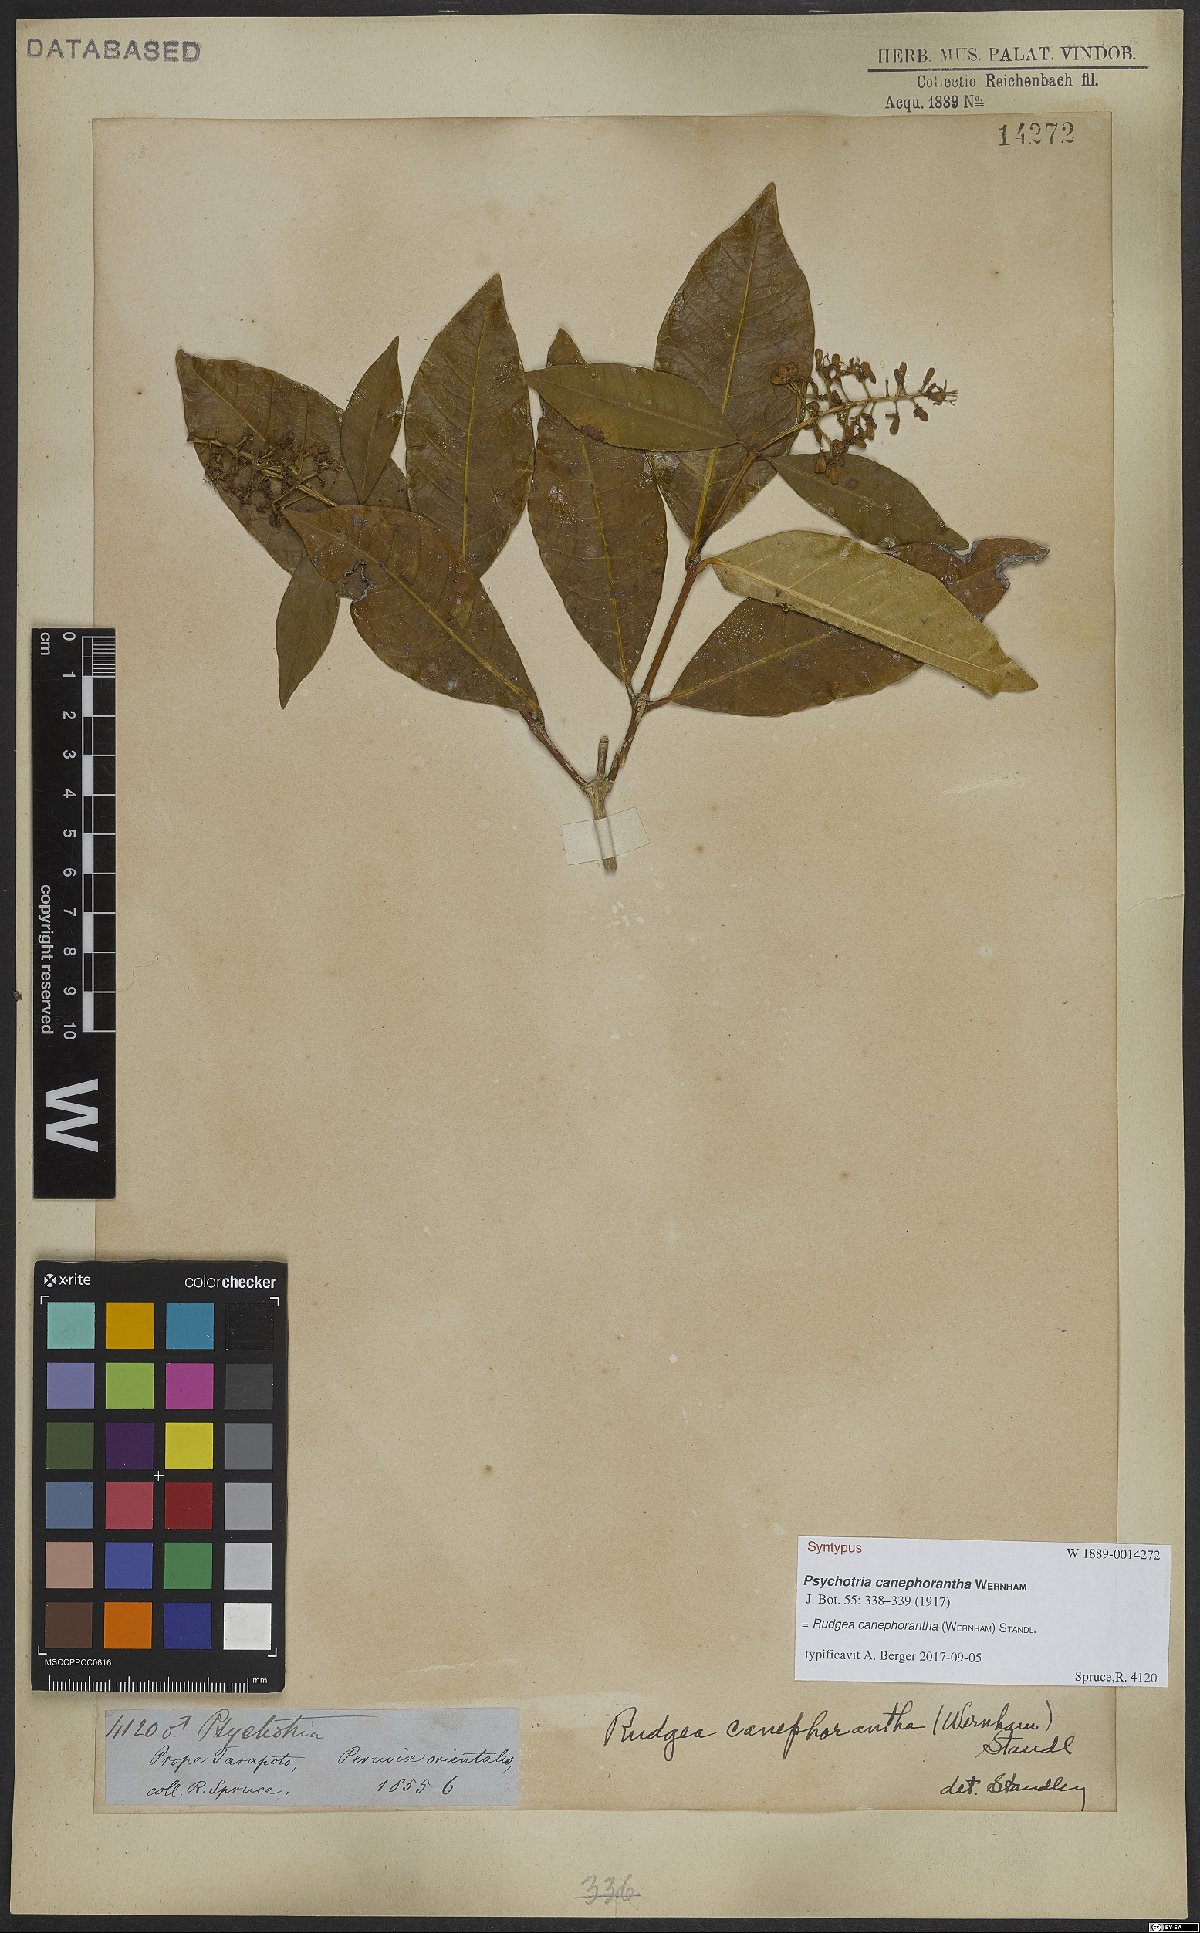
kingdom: Plantae
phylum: Tracheophyta
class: Magnoliopsida
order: Gentianales
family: Rubiaceae
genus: Rudgea
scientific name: Rudgea canephorantha
